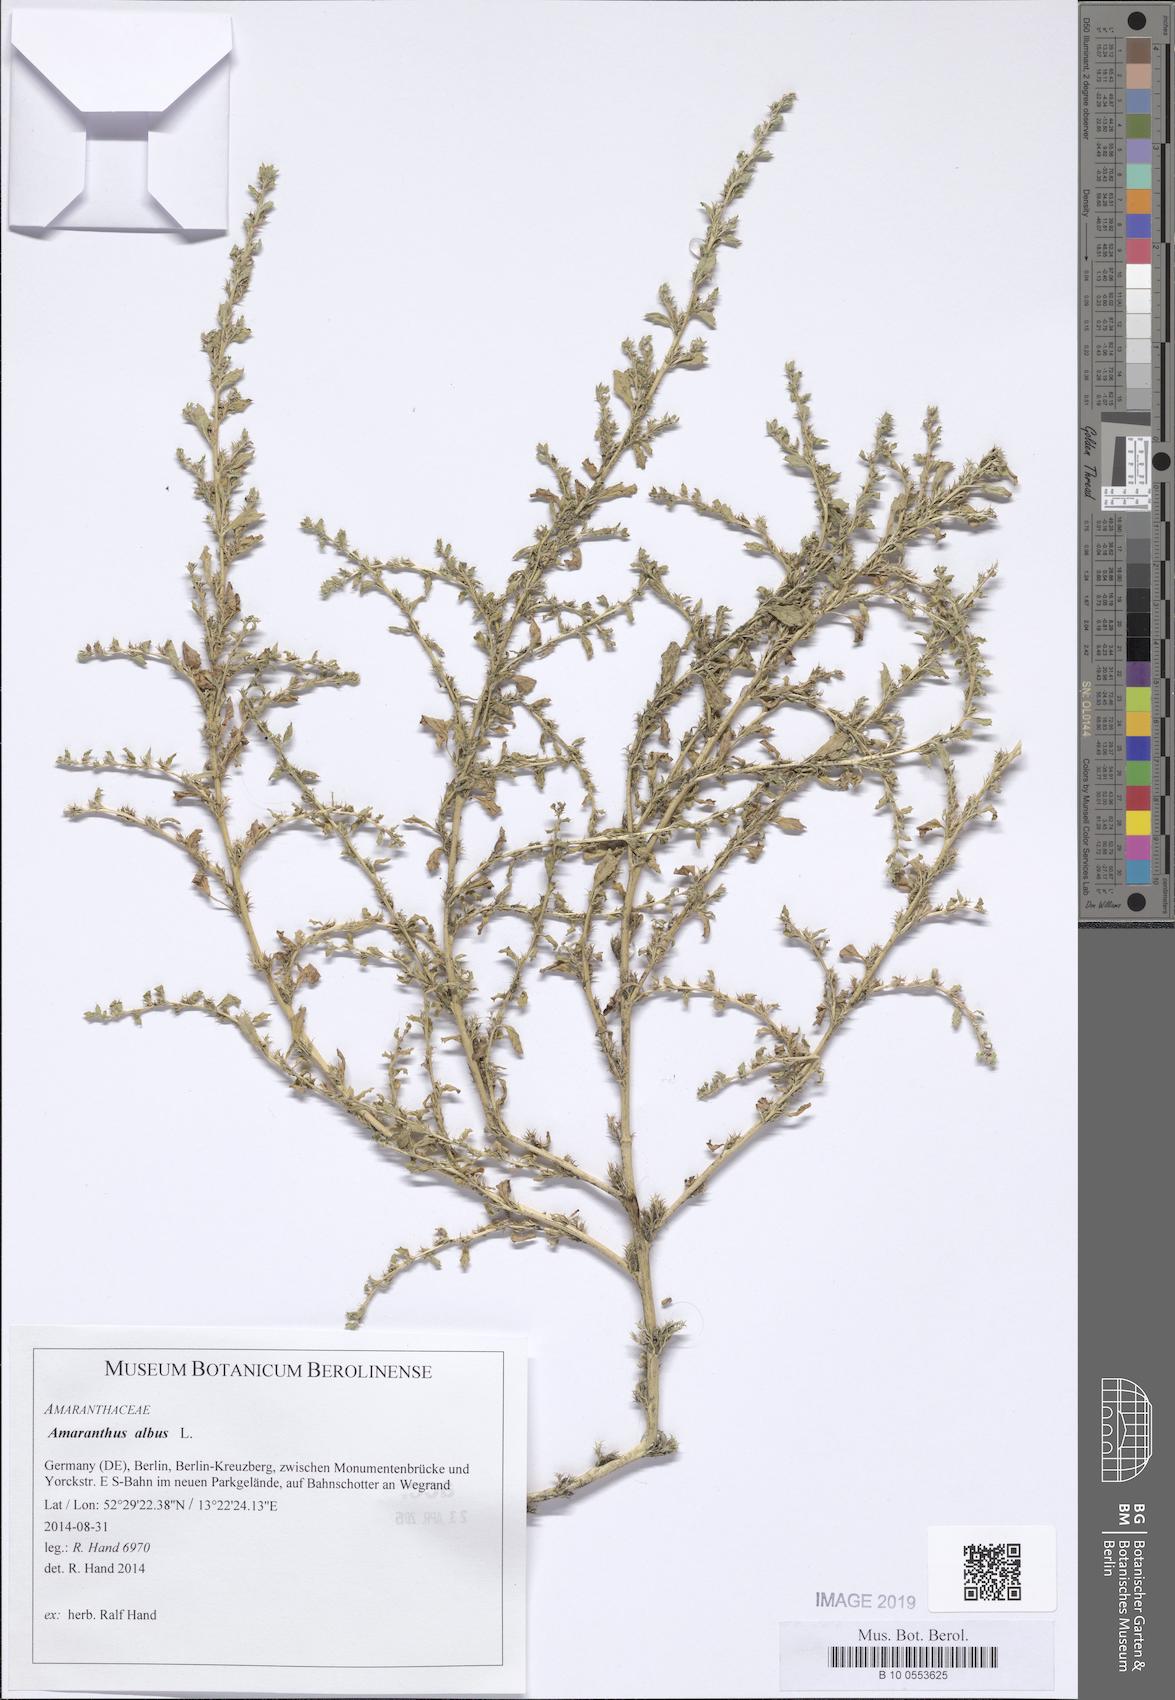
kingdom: Plantae
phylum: Tracheophyta
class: Magnoliopsida
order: Caryophyllales
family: Amaranthaceae
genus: Amaranthus
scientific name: Amaranthus albus
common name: White pigweed
